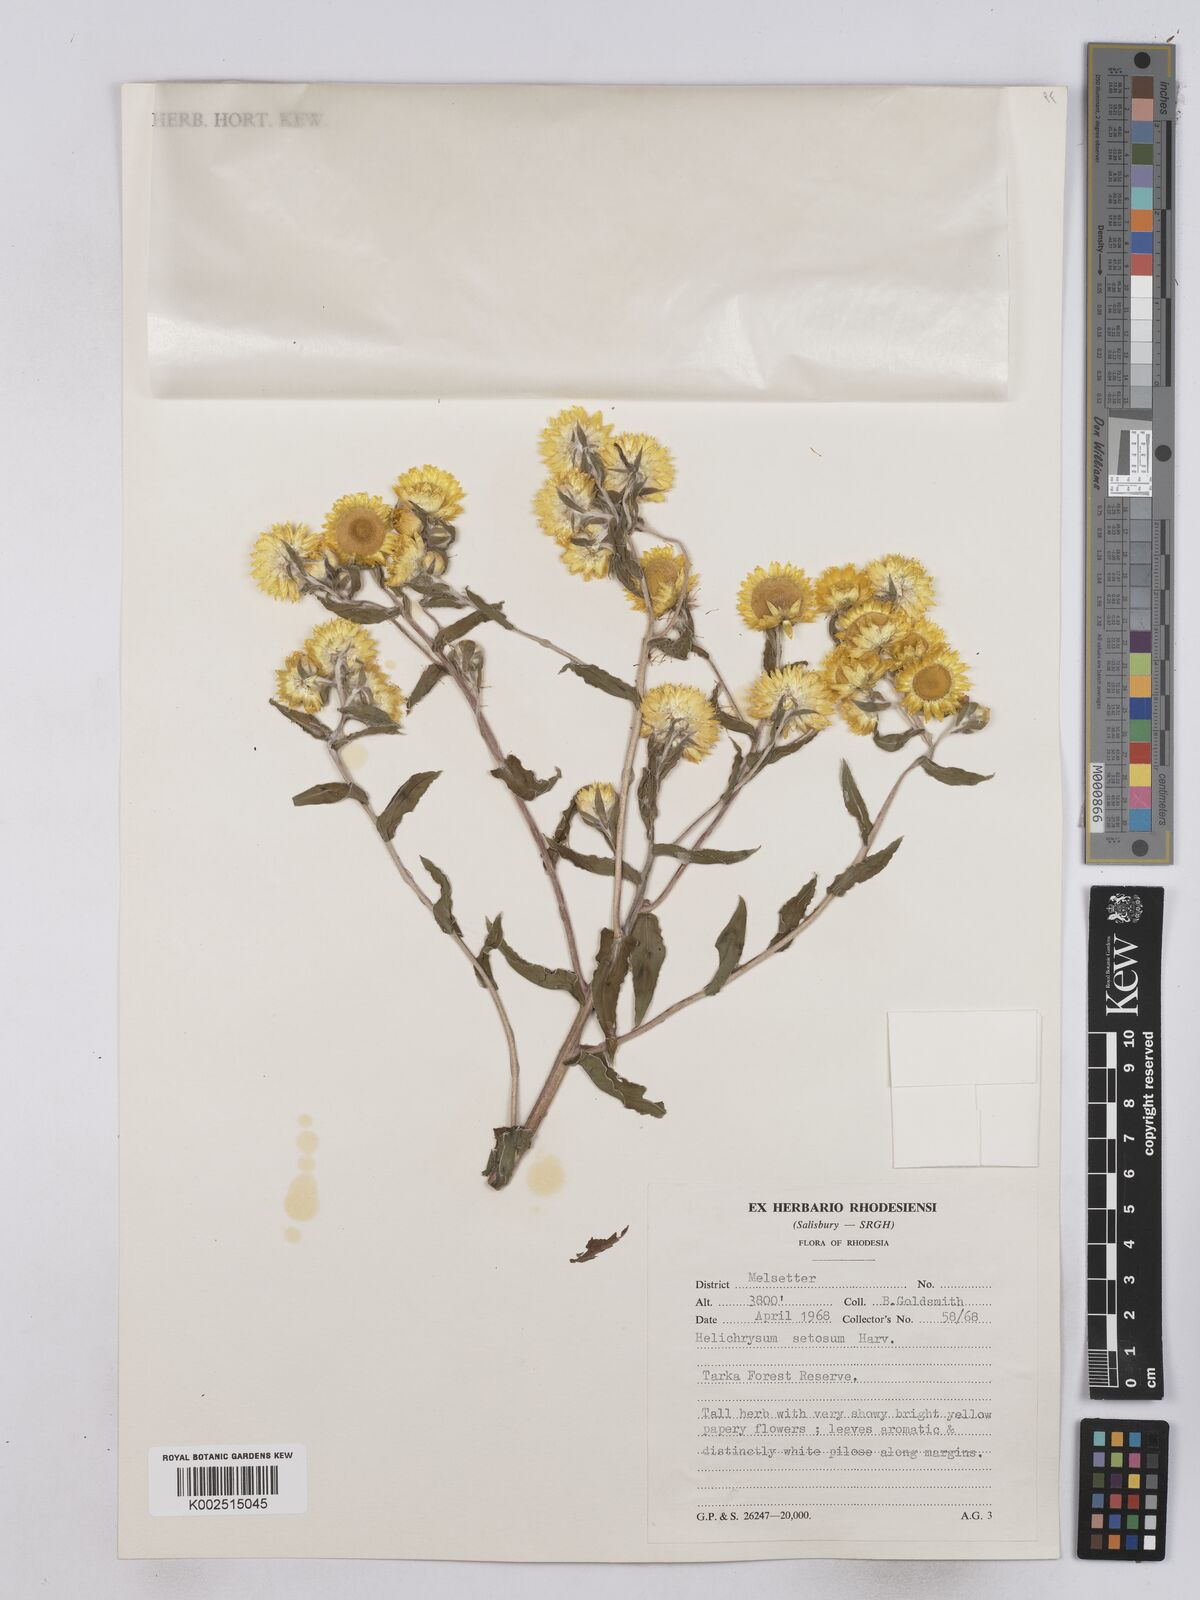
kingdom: Plantae
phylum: Tracheophyta
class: Magnoliopsida
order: Asterales
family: Asteraceae
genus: Helichrysum
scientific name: Helichrysum setosum
